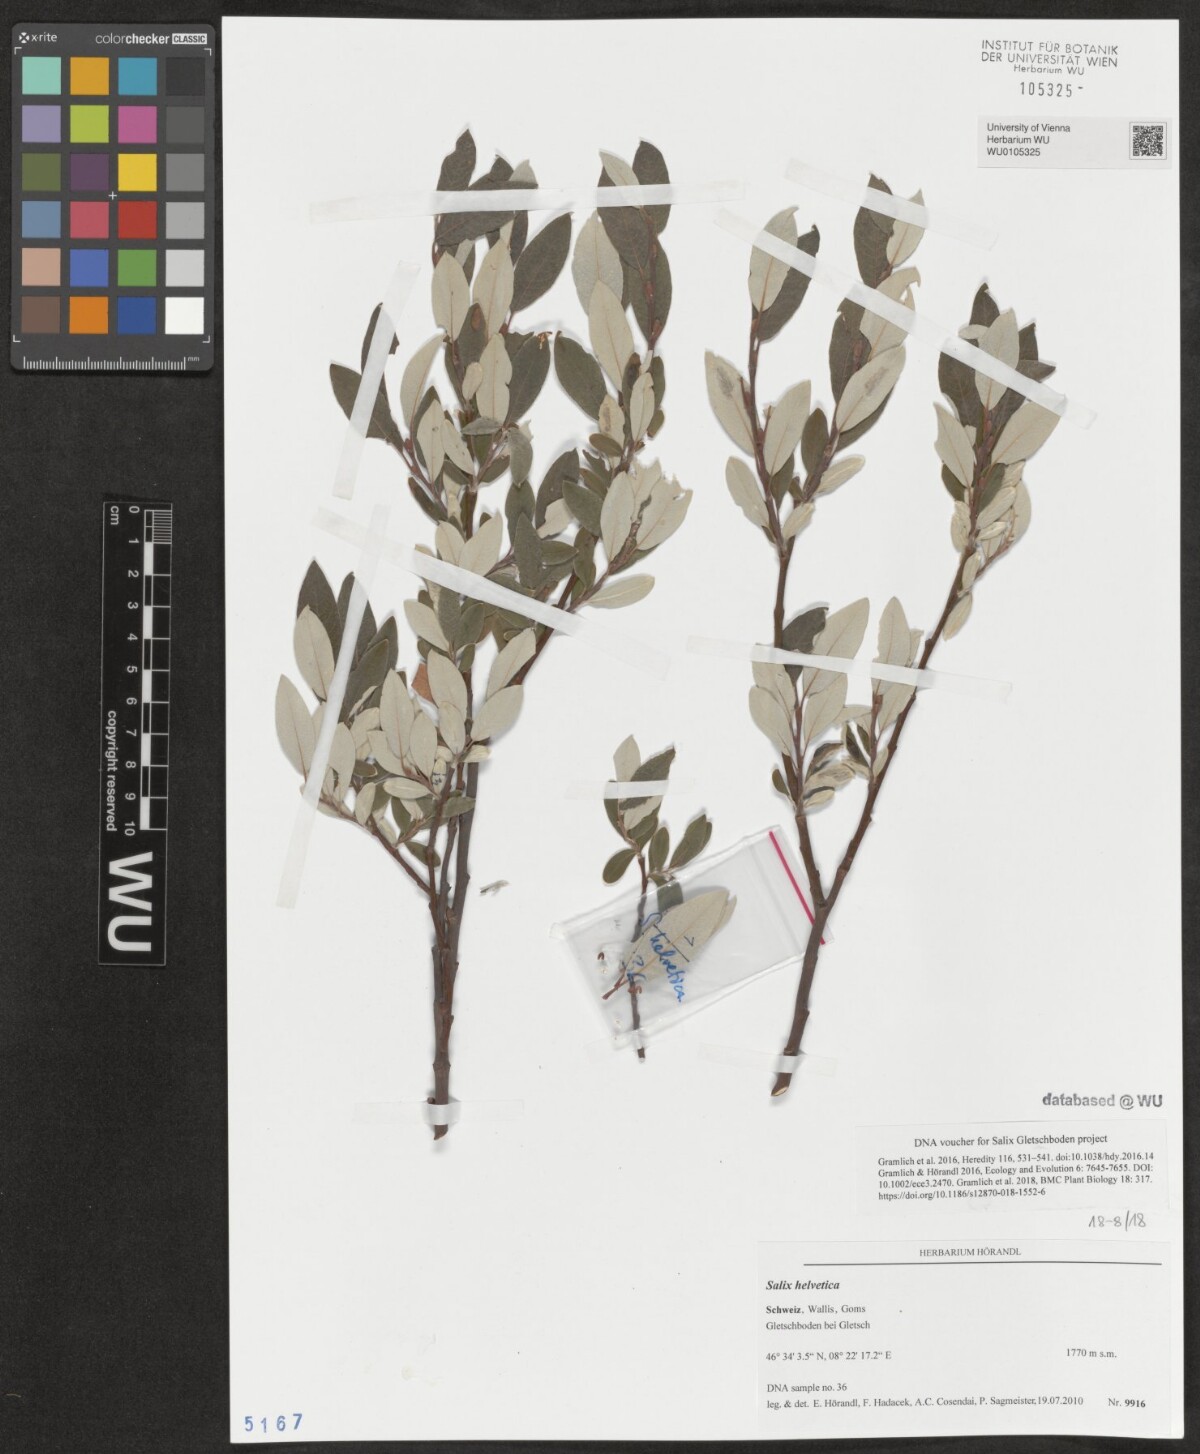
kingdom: Plantae
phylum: Tracheophyta
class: Magnoliopsida
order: Malpighiales
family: Salicaceae
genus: Salix
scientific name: Salix helvetica
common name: Swiss willow
